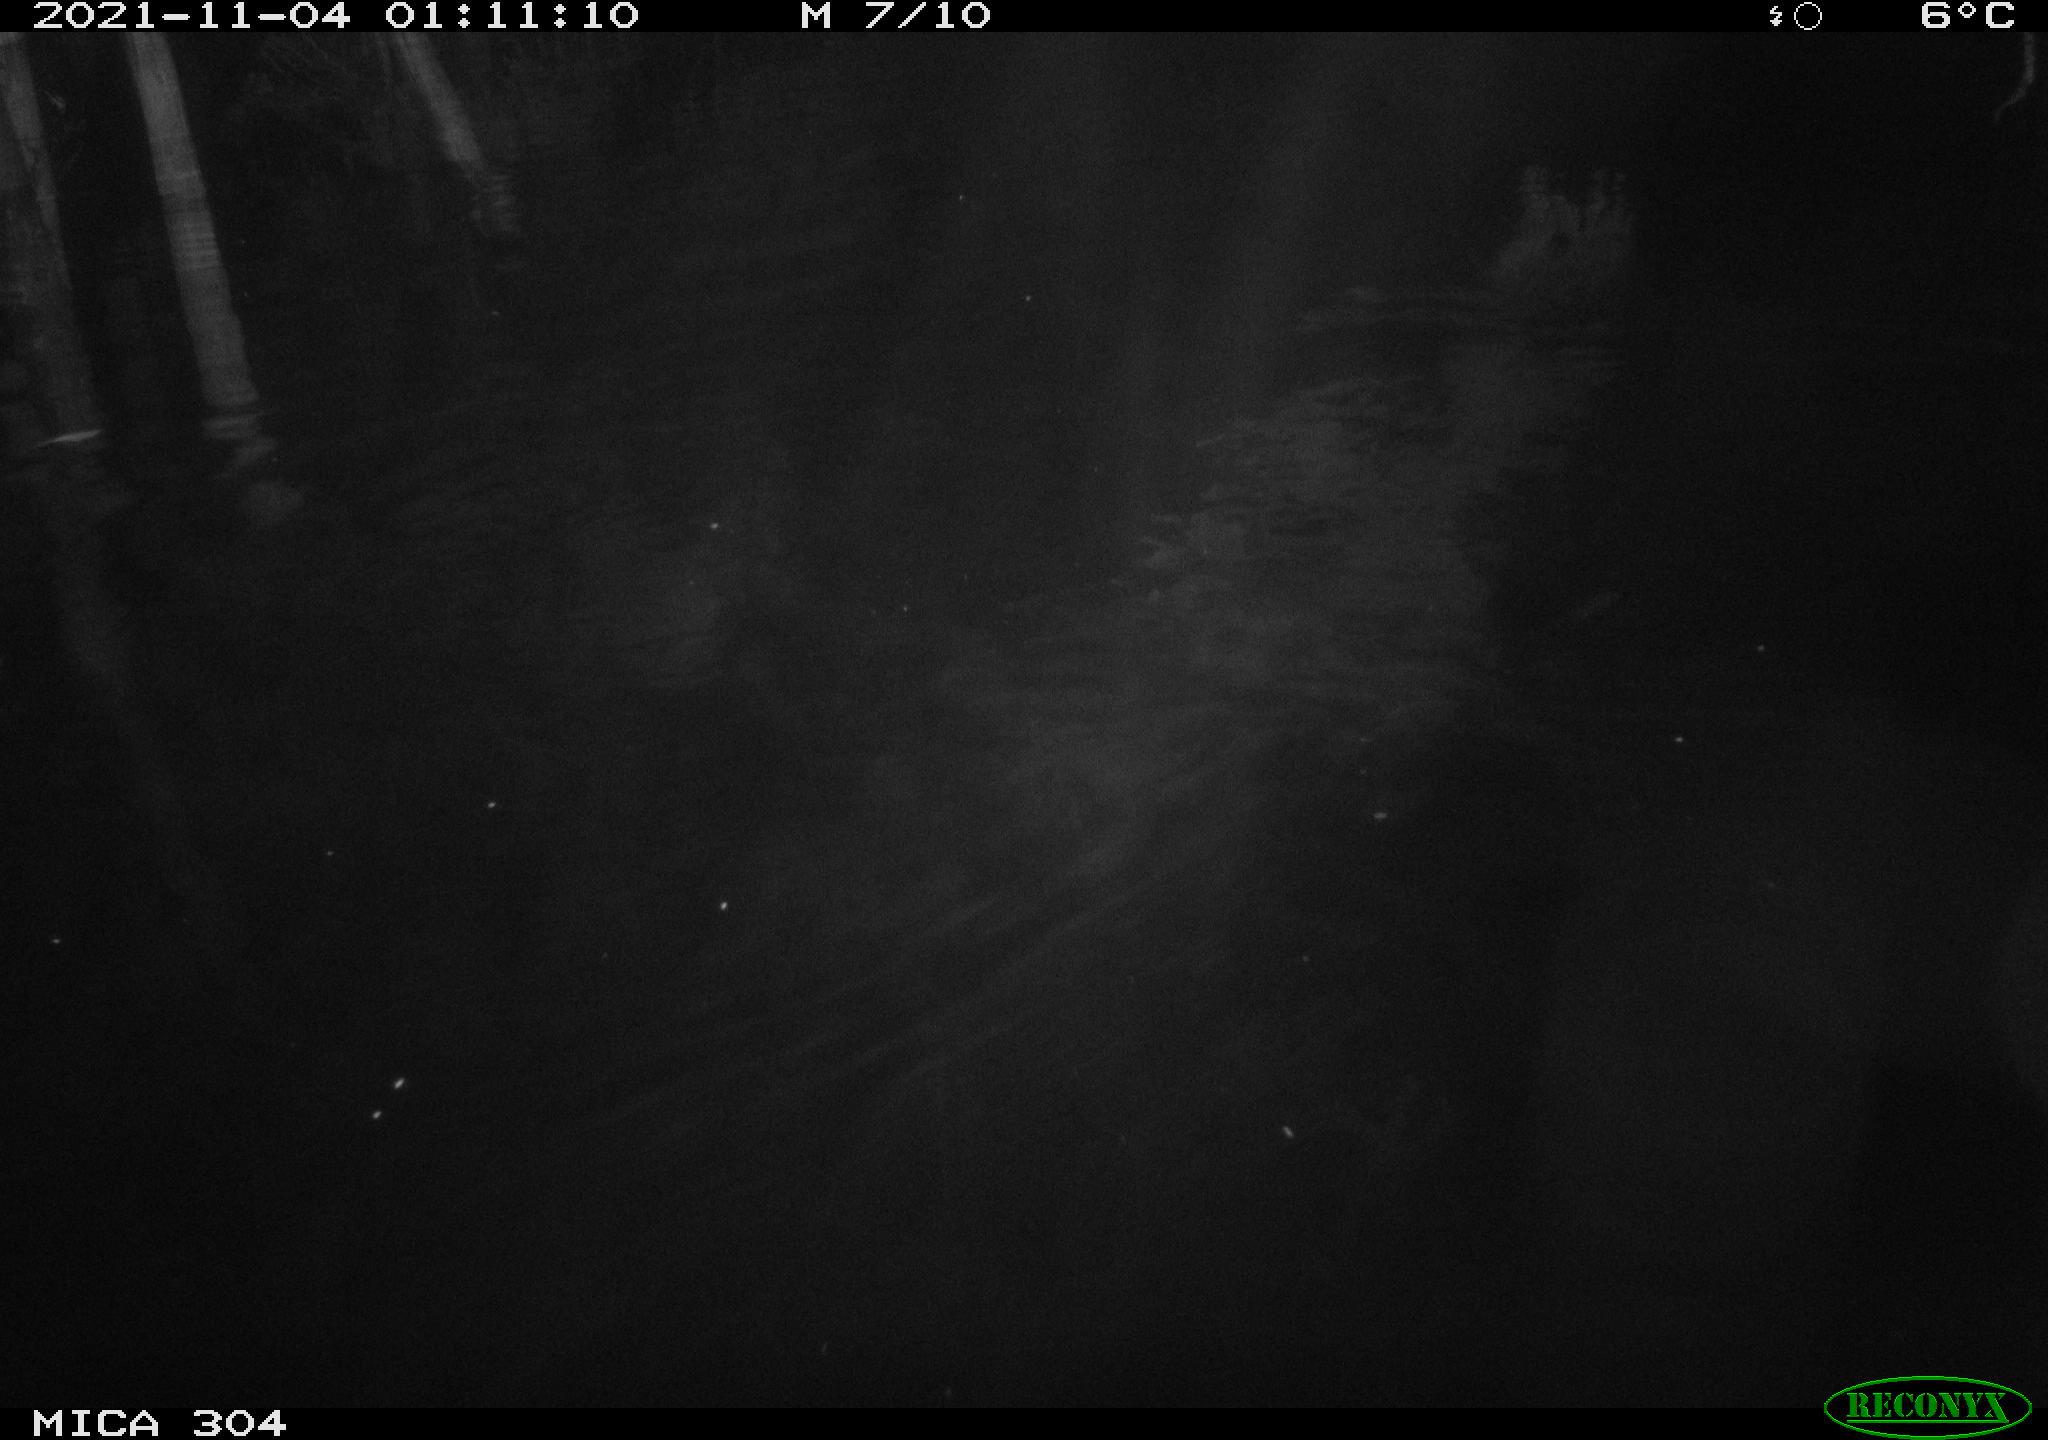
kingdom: Animalia
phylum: Chordata
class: Mammalia
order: Rodentia
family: Muridae
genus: Rattus
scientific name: Rattus norvegicus
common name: Brown rat
